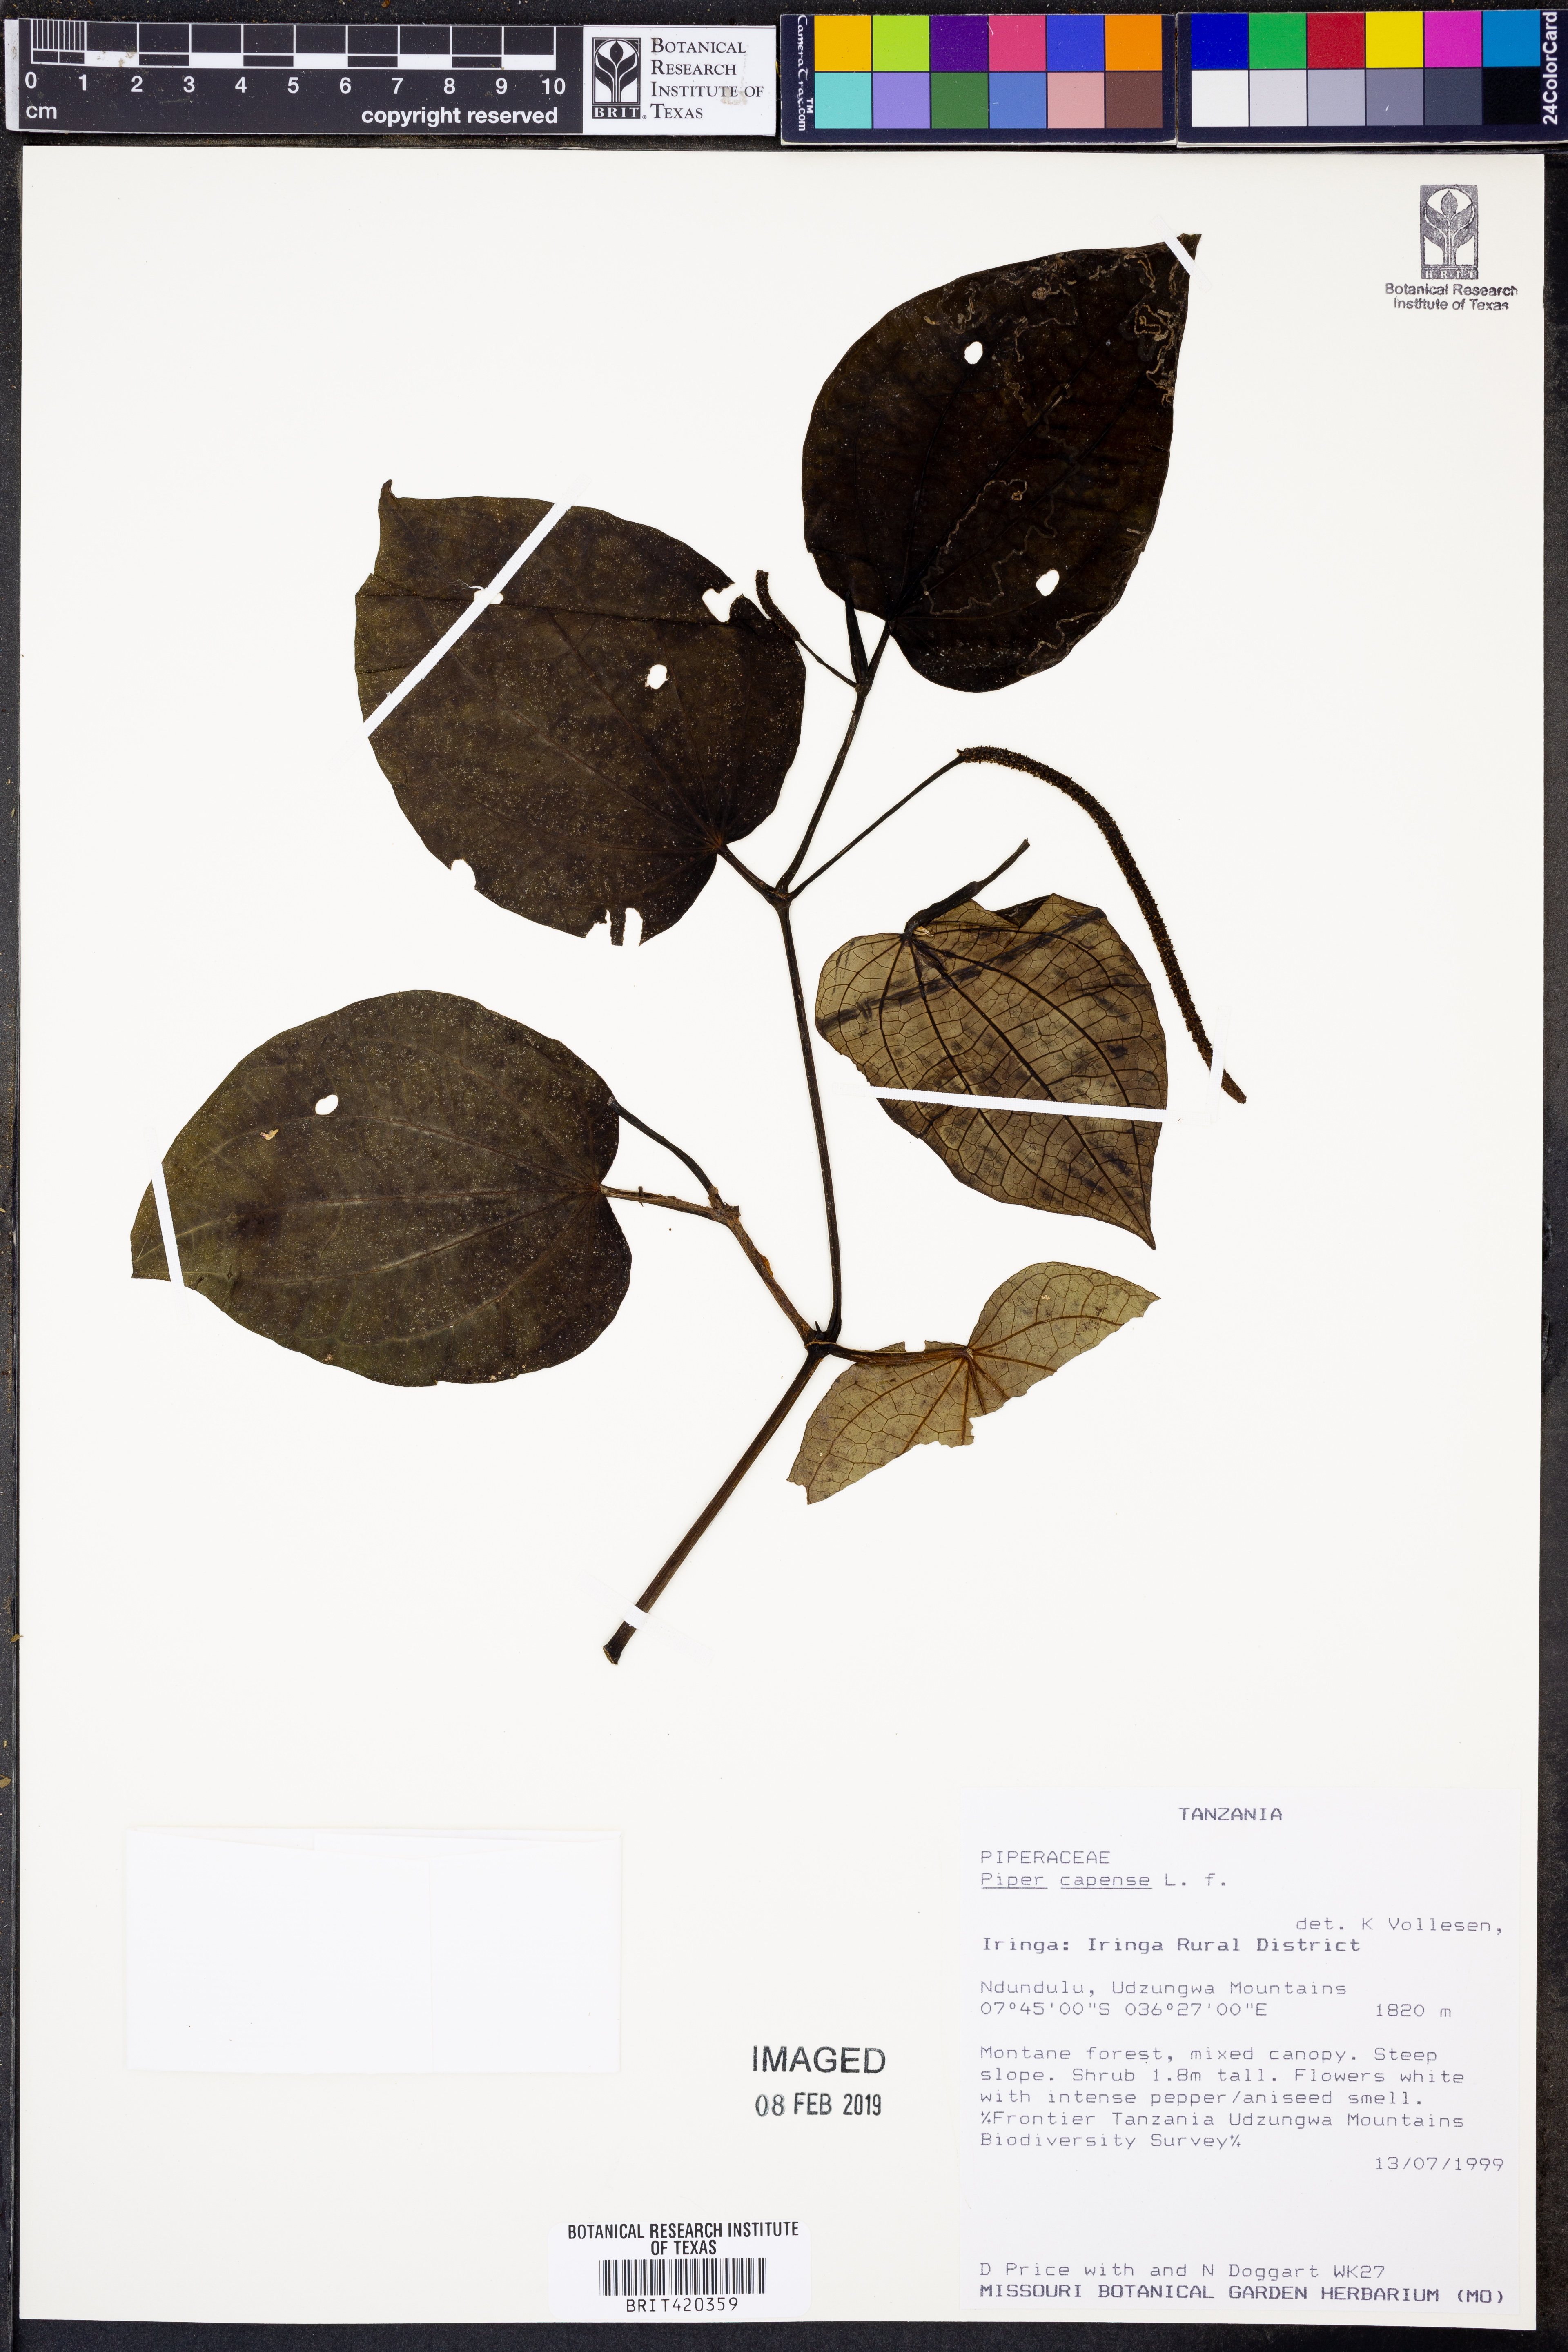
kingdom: Plantae
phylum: Tracheophyta
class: Magnoliopsida
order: Piperales
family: Piperaceae
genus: Piper
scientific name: Piper capense
